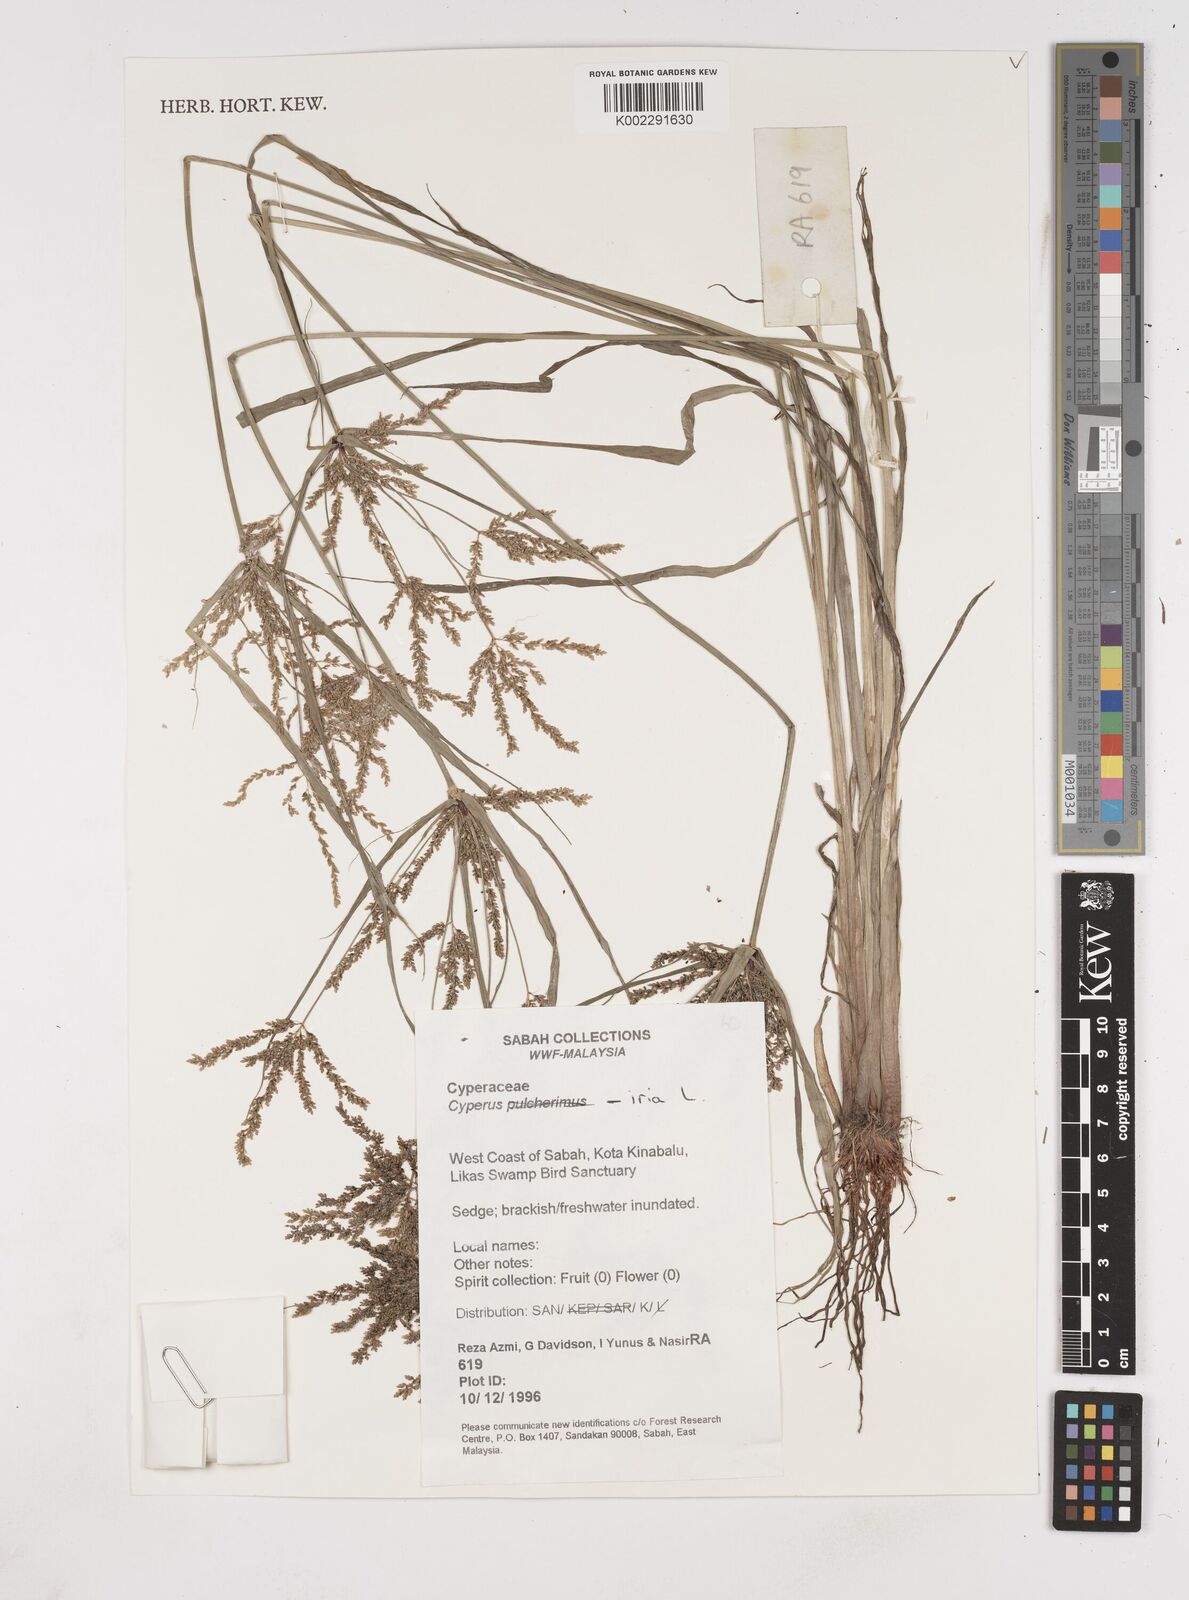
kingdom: Plantae
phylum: Tracheophyta
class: Liliopsida
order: Poales
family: Cyperaceae
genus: Cyperus
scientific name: Cyperus iria
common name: Ricefield flatsedge
